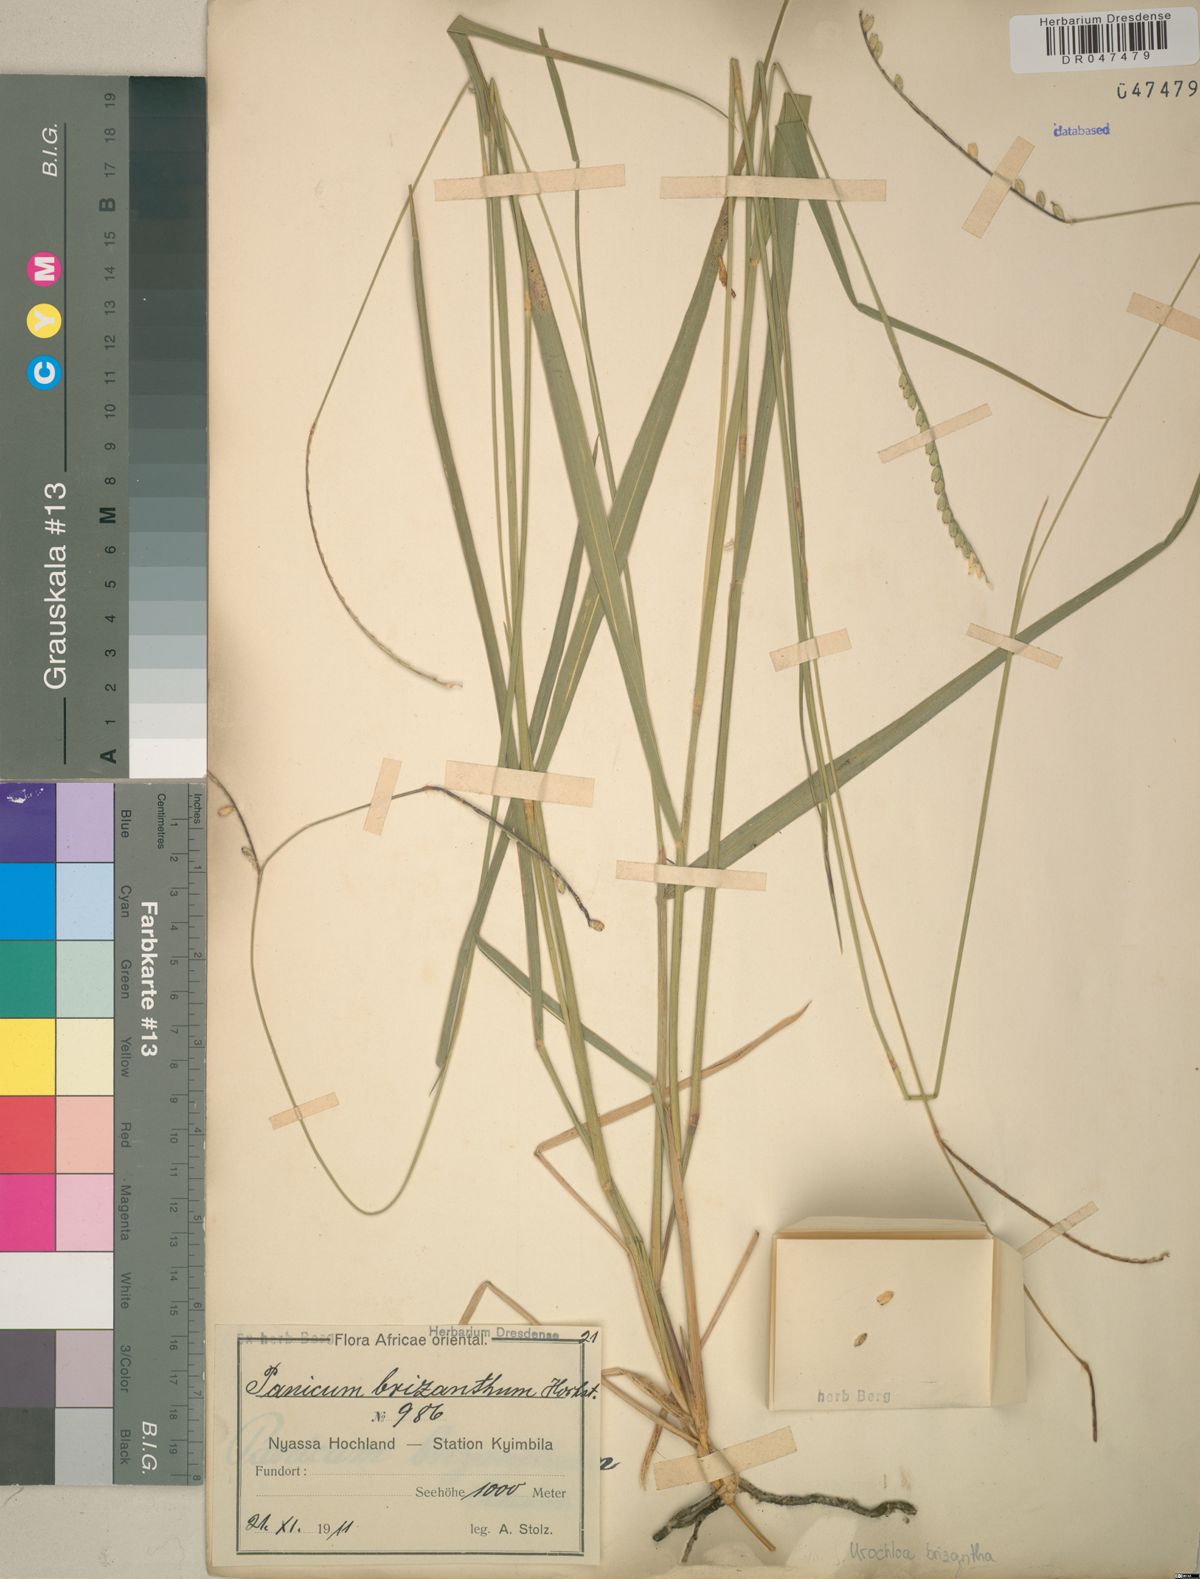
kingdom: Plantae
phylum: Tracheophyta
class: Liliopsida
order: Poales
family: Poaceae
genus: Urochloa
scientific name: Urochloa brizantha
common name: Palisade signalgrass
